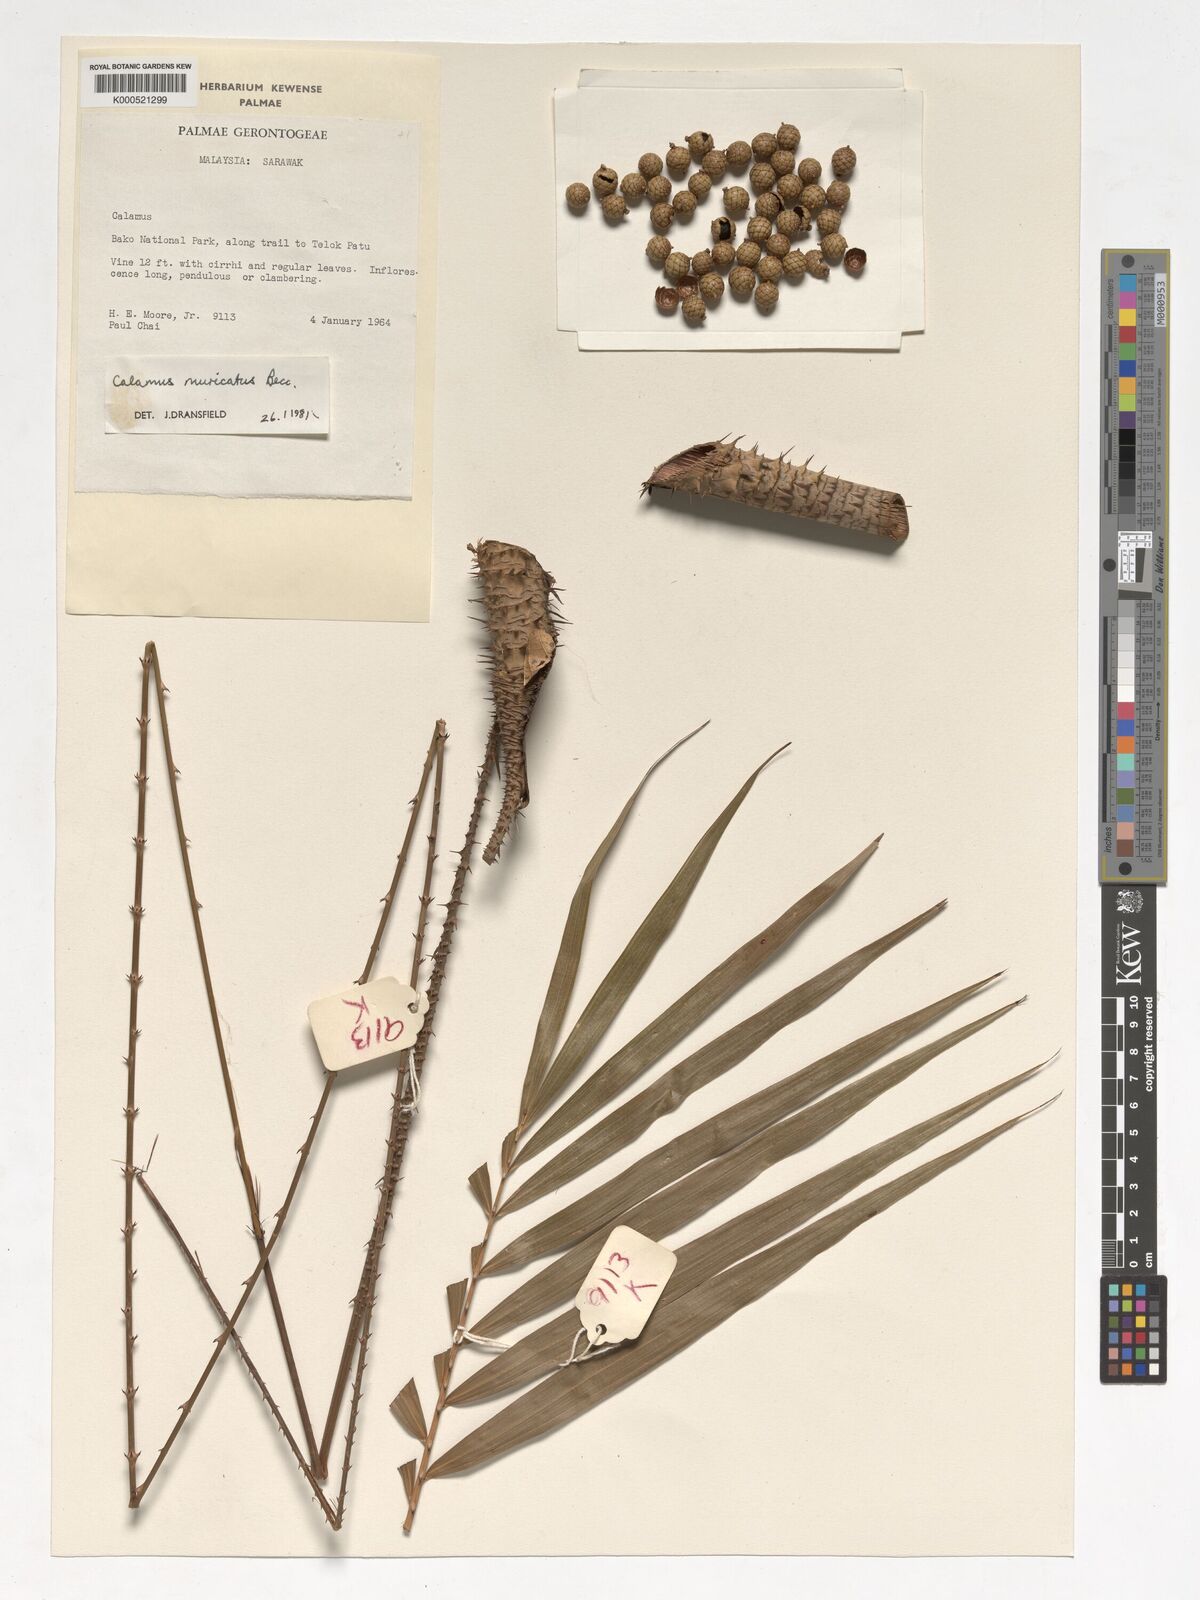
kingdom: Plantae
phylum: Tracheophyta
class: Liliopsida
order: Arecales
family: Arecaceae
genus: Calamus
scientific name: Calamus muricatus
